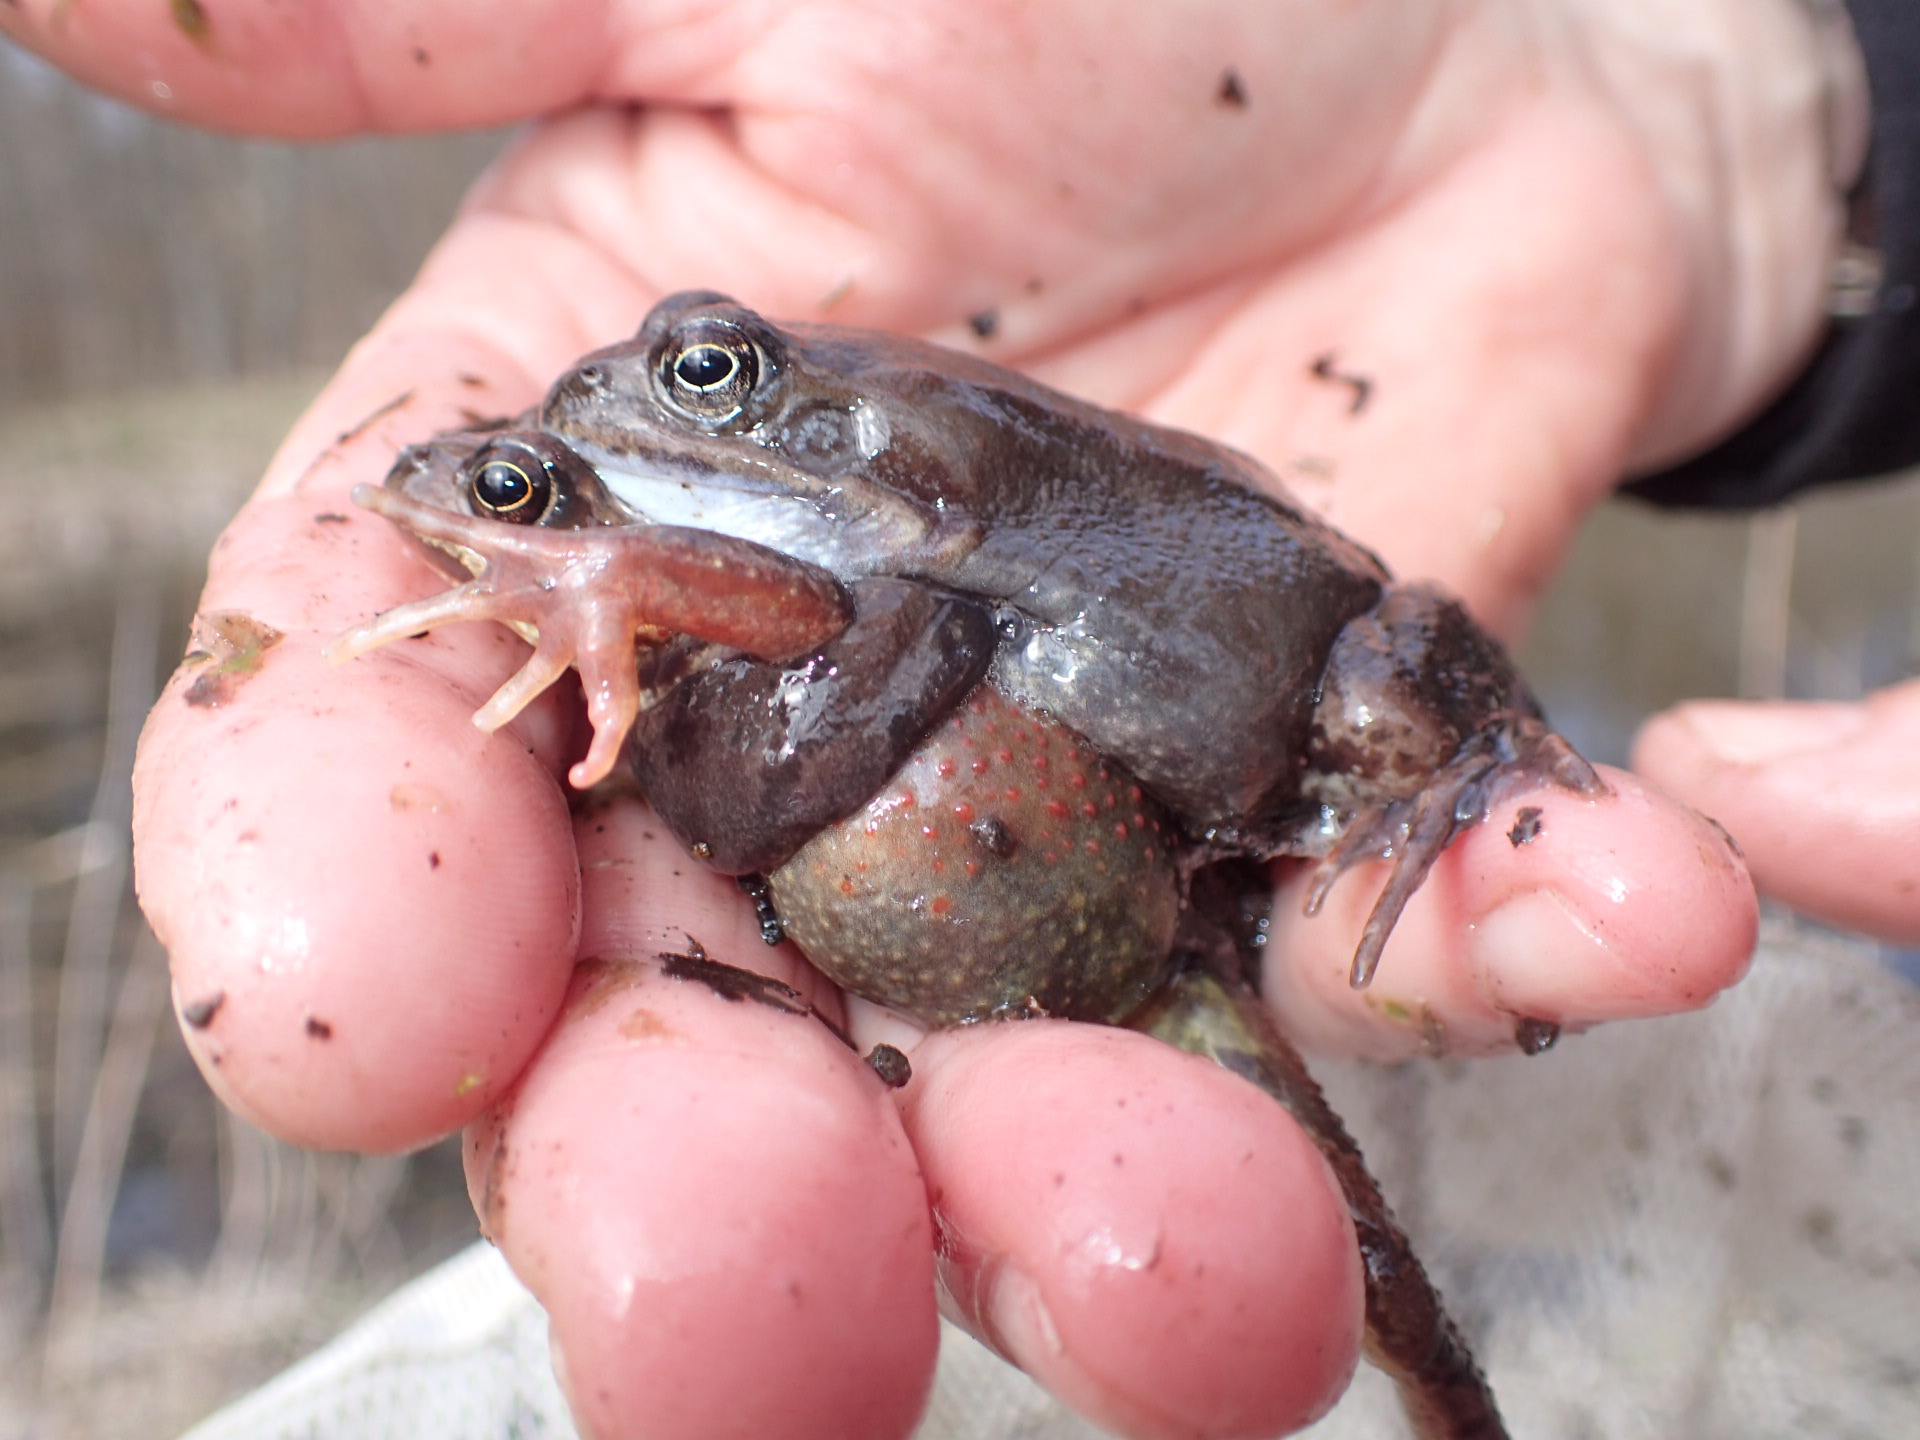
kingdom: Animalia
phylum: Chordata
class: Amphibia
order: Anura
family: Ranidae
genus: Rana
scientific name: Rana temporaria
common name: Butsnudet frø
